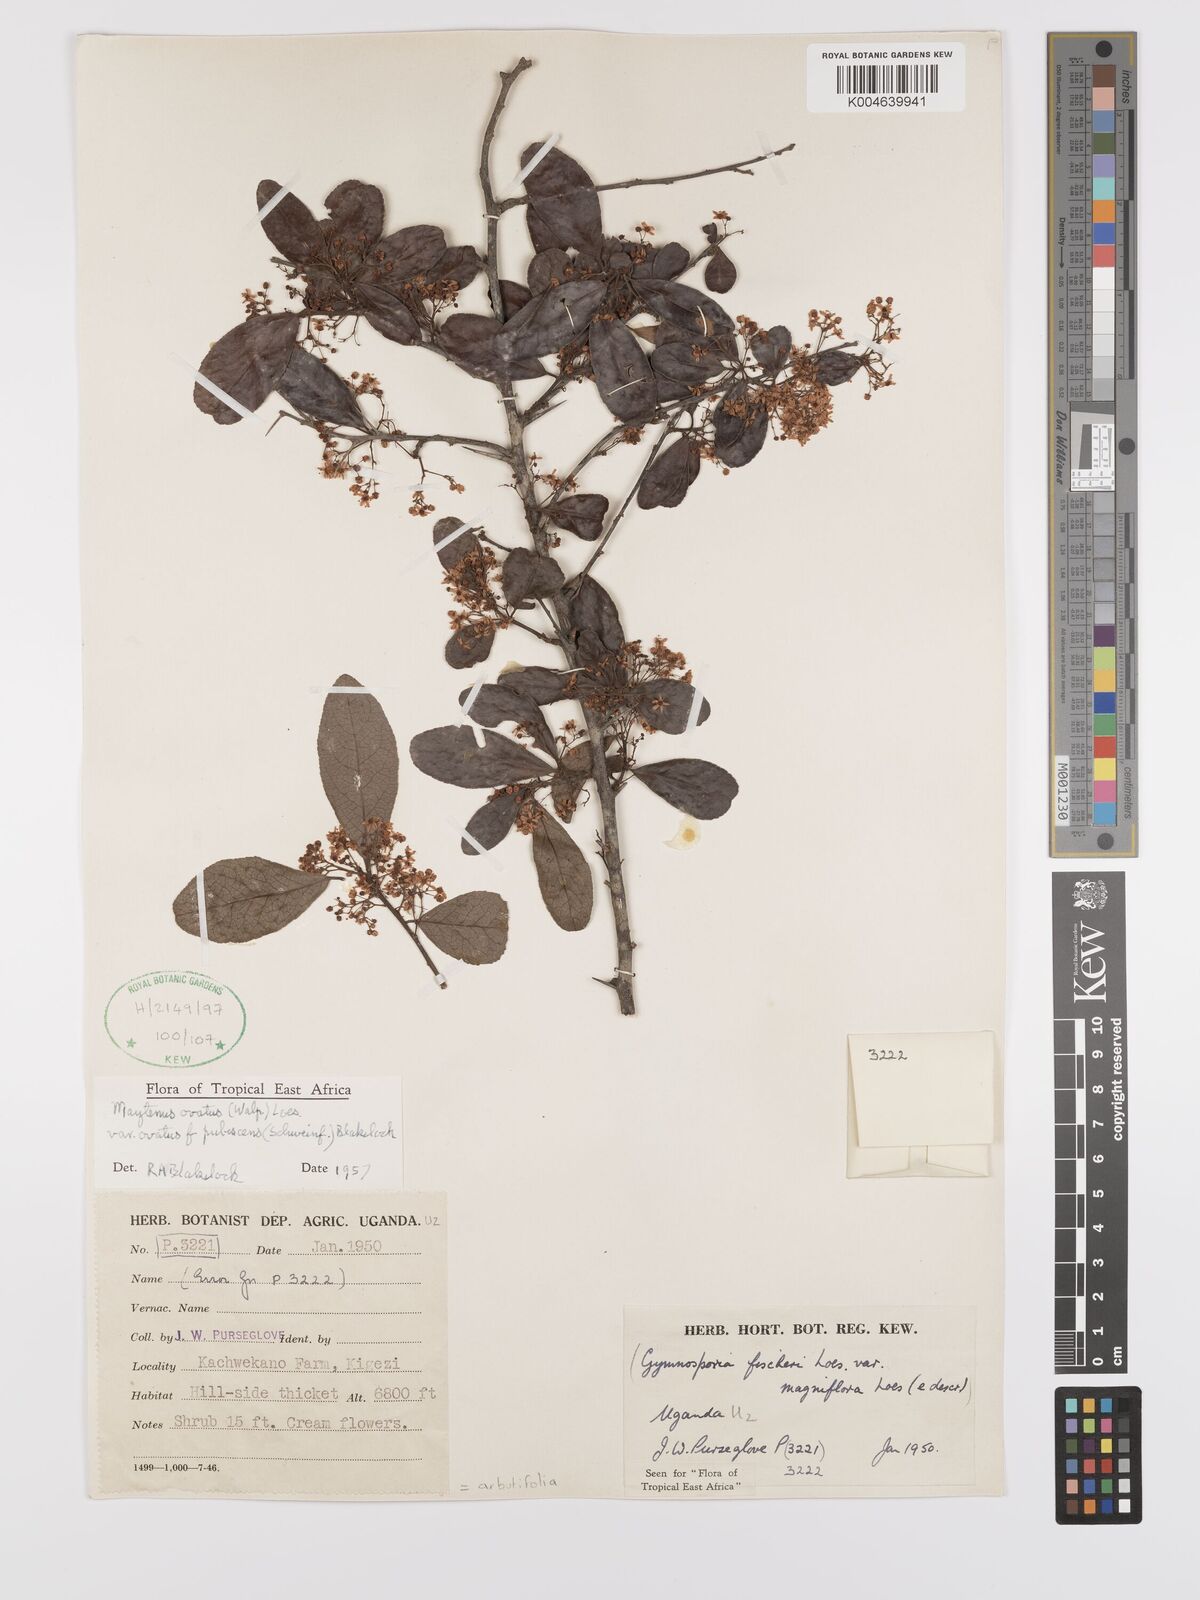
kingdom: Plantae
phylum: Tracheophyta
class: Magnoliopsida
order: Celastrales
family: Celastraceae
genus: Gymnosporia
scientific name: Gymnosporia
